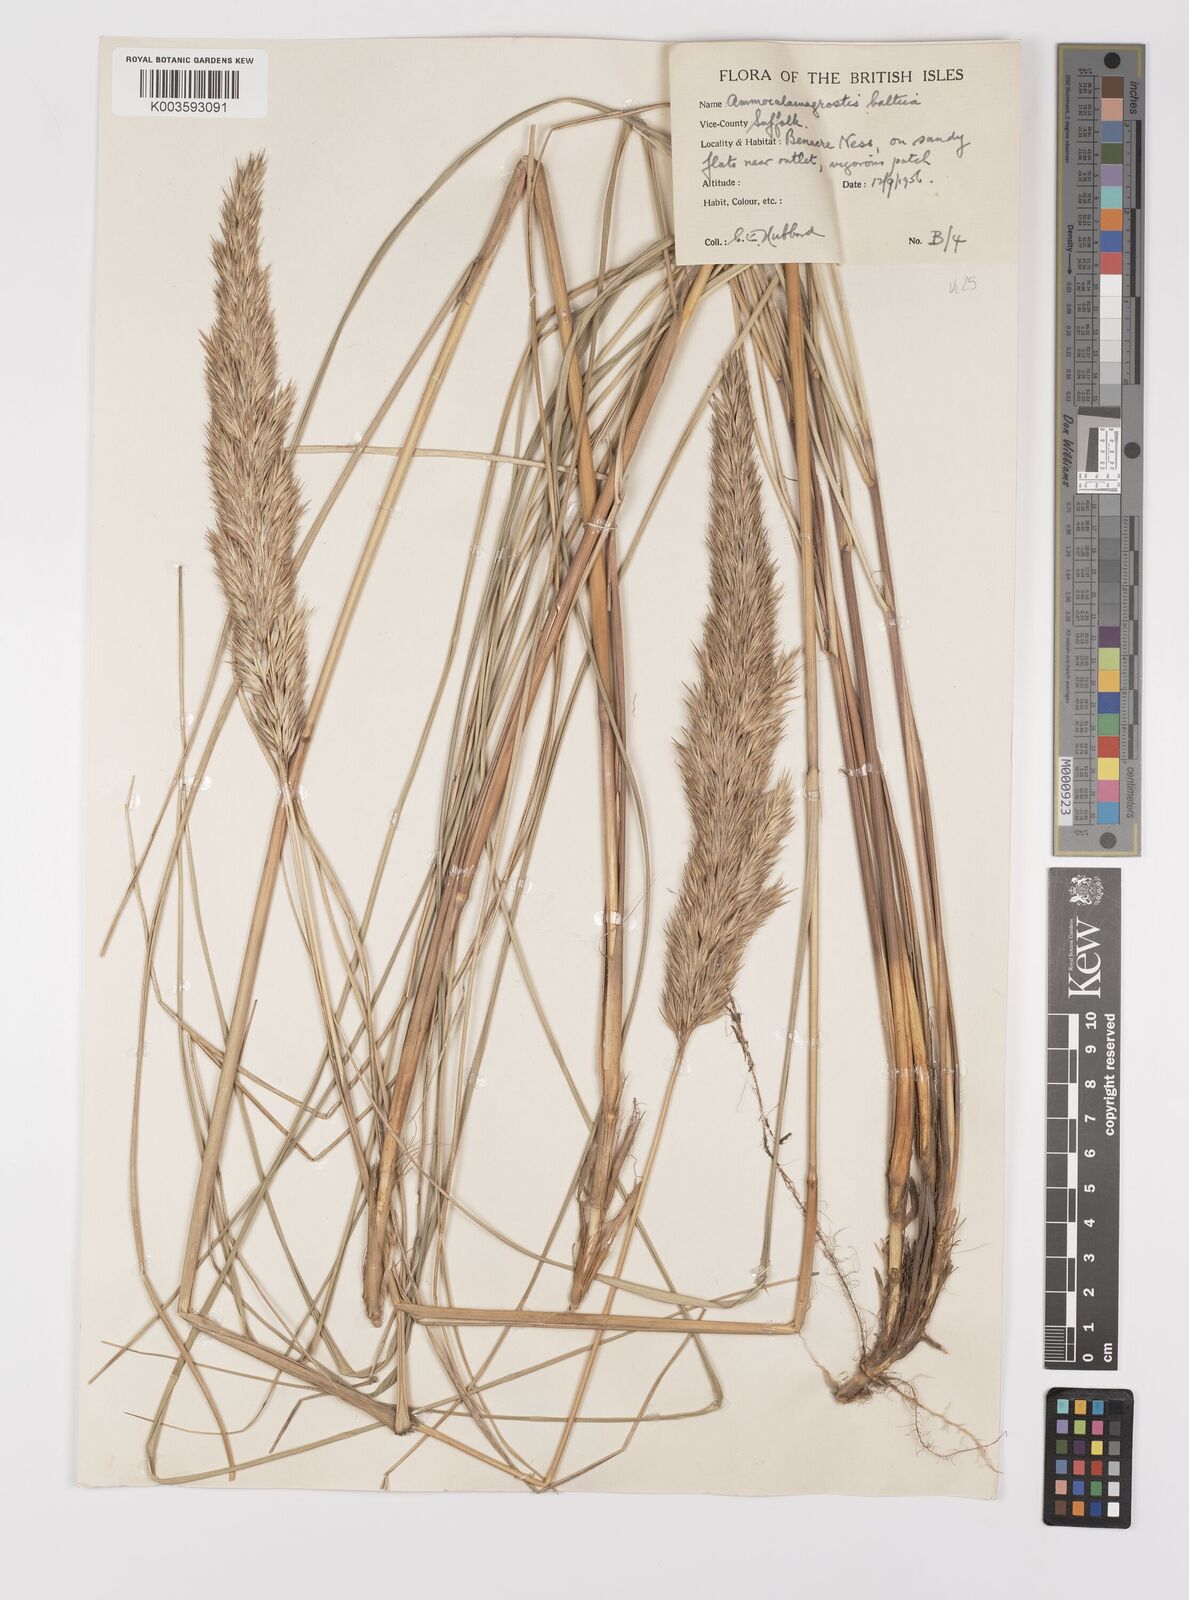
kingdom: Plantae
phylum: Tracheophyta
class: Liliopsida
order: Poales
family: Poaceae
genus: Calamagrostis
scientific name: Calamagrostis baltica
